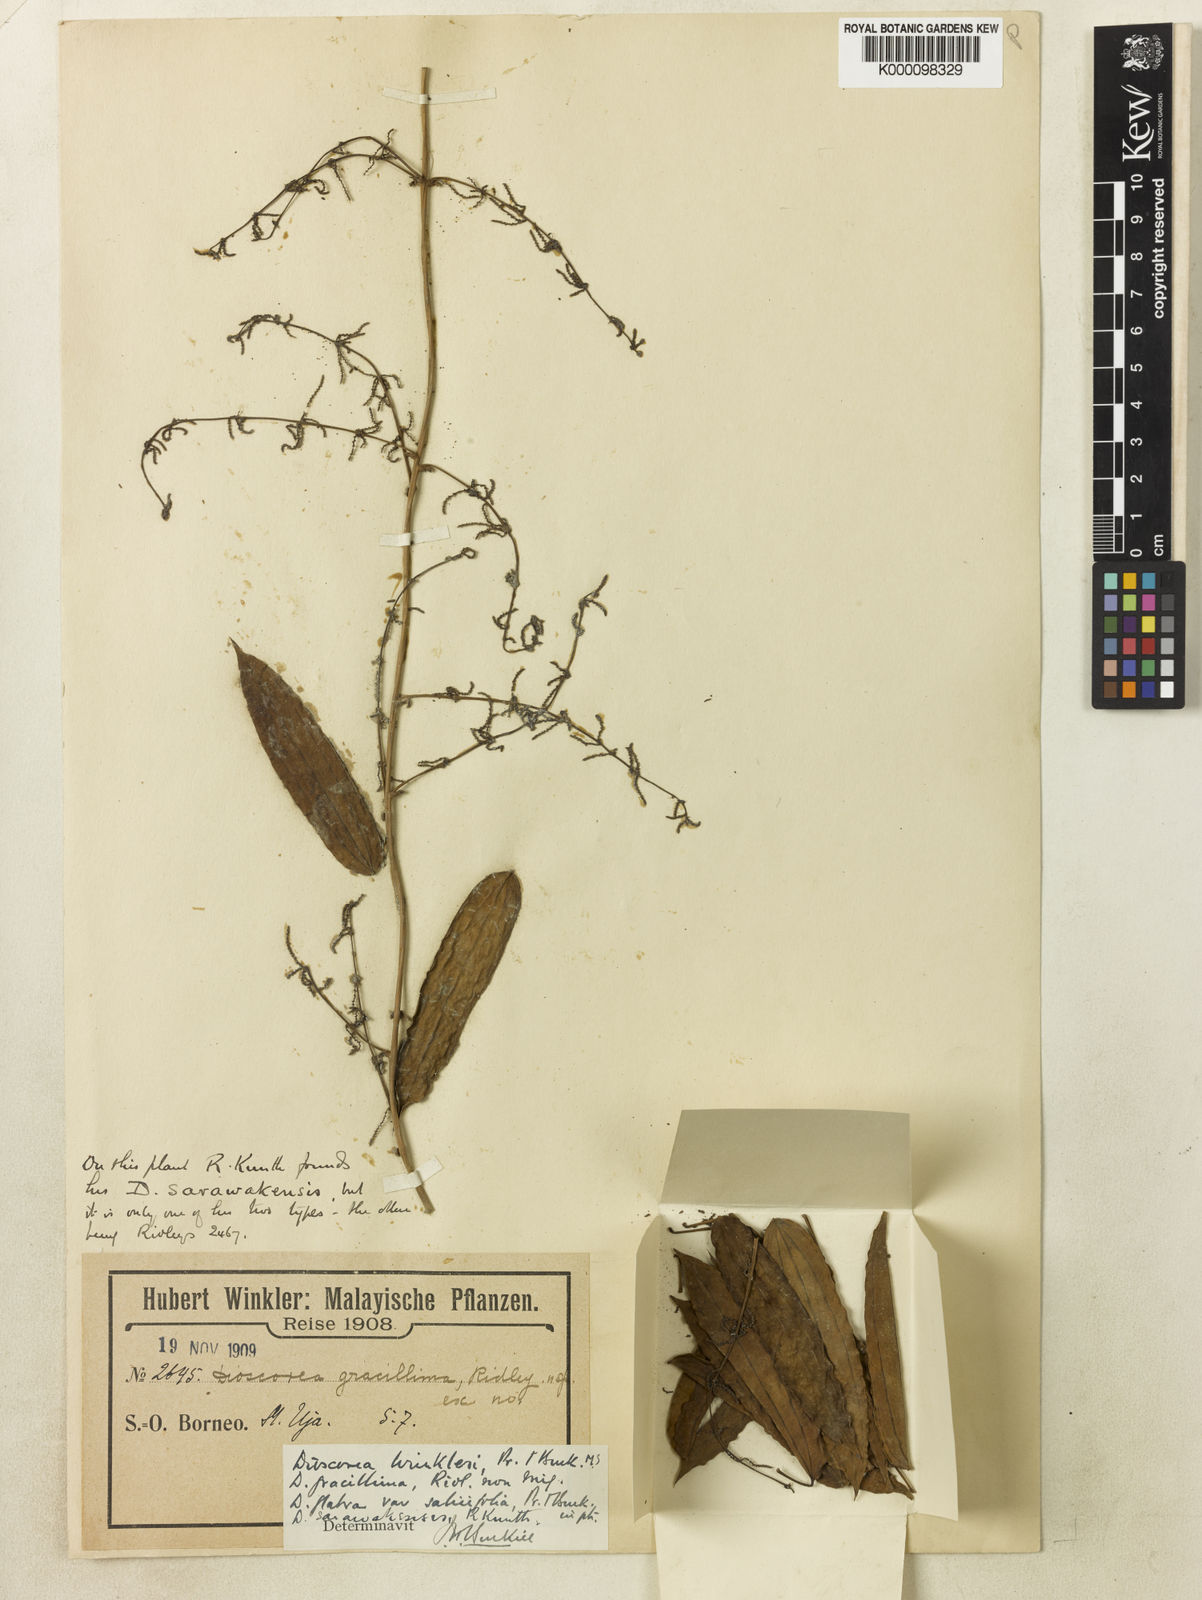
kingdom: Plantae
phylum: Tracheophyta
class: Liliopsida
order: Dioscoreales
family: Dioscoreaceae
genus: Dioscorea
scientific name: Dioscorea salicifolia
